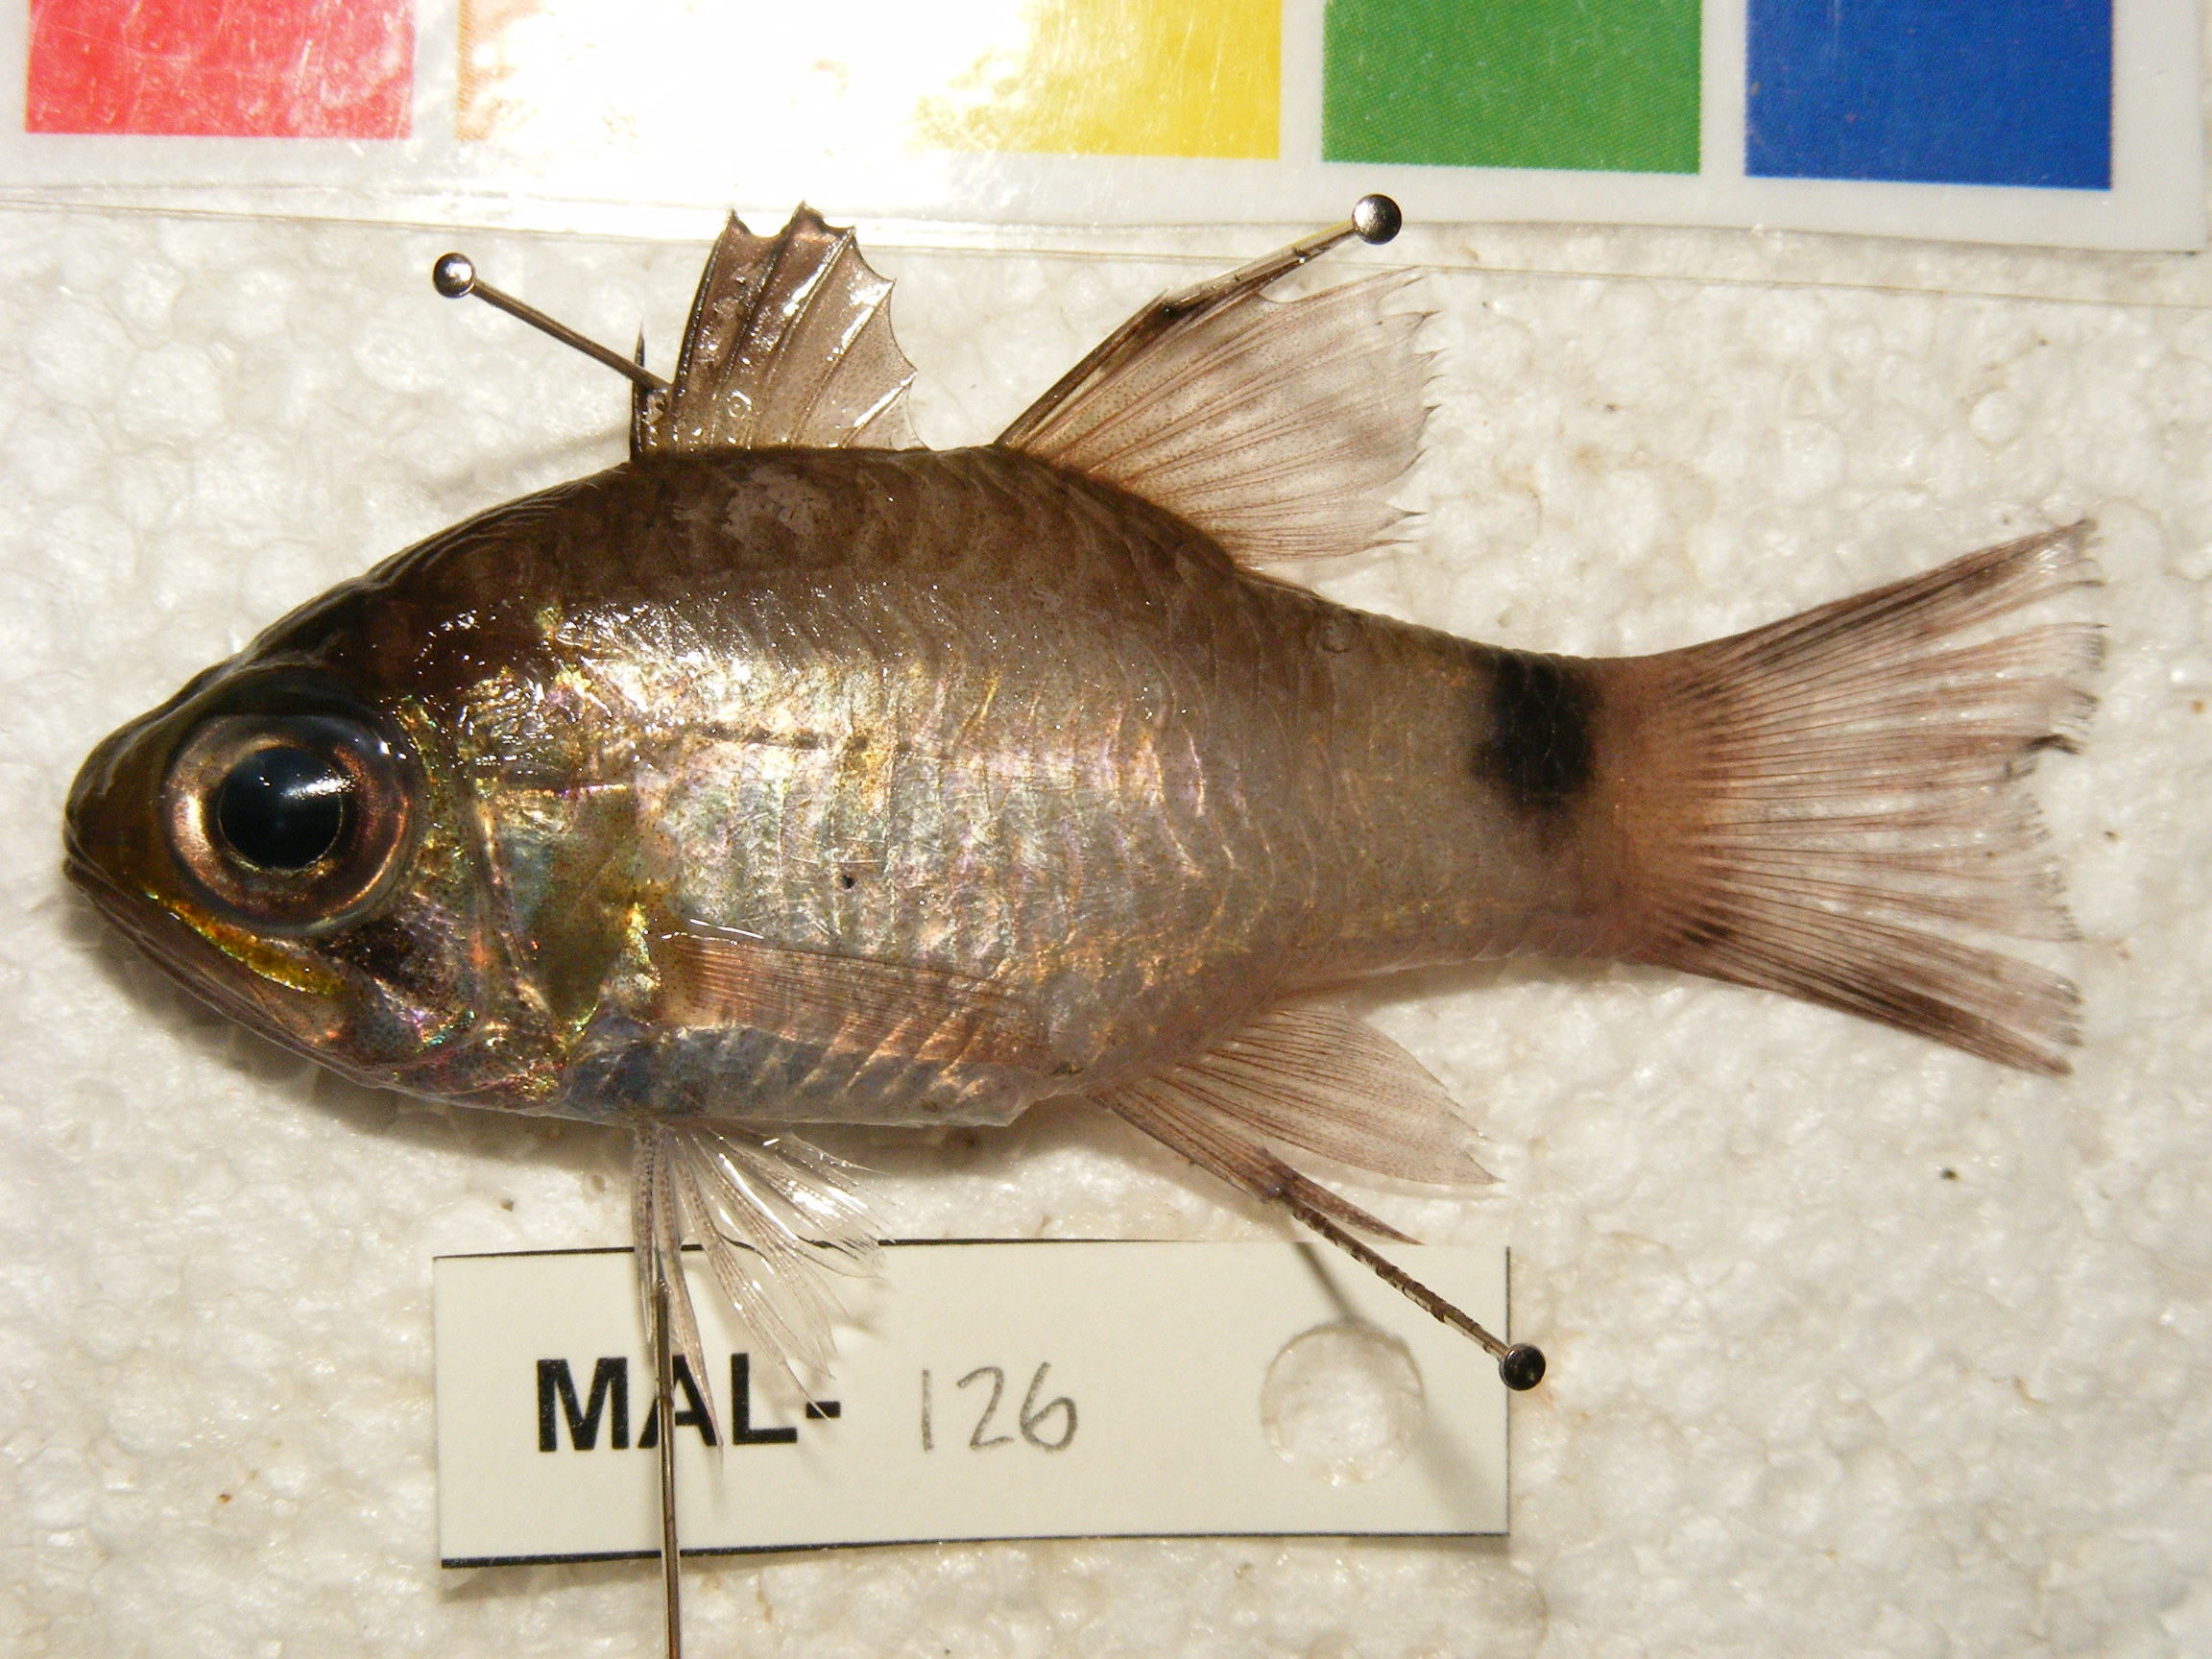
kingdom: Animalia
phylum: Chordata
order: Perciformes
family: Apogonidae
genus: Nectamia
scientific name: Nectamia savayensis
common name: Samoan cardinalfish
